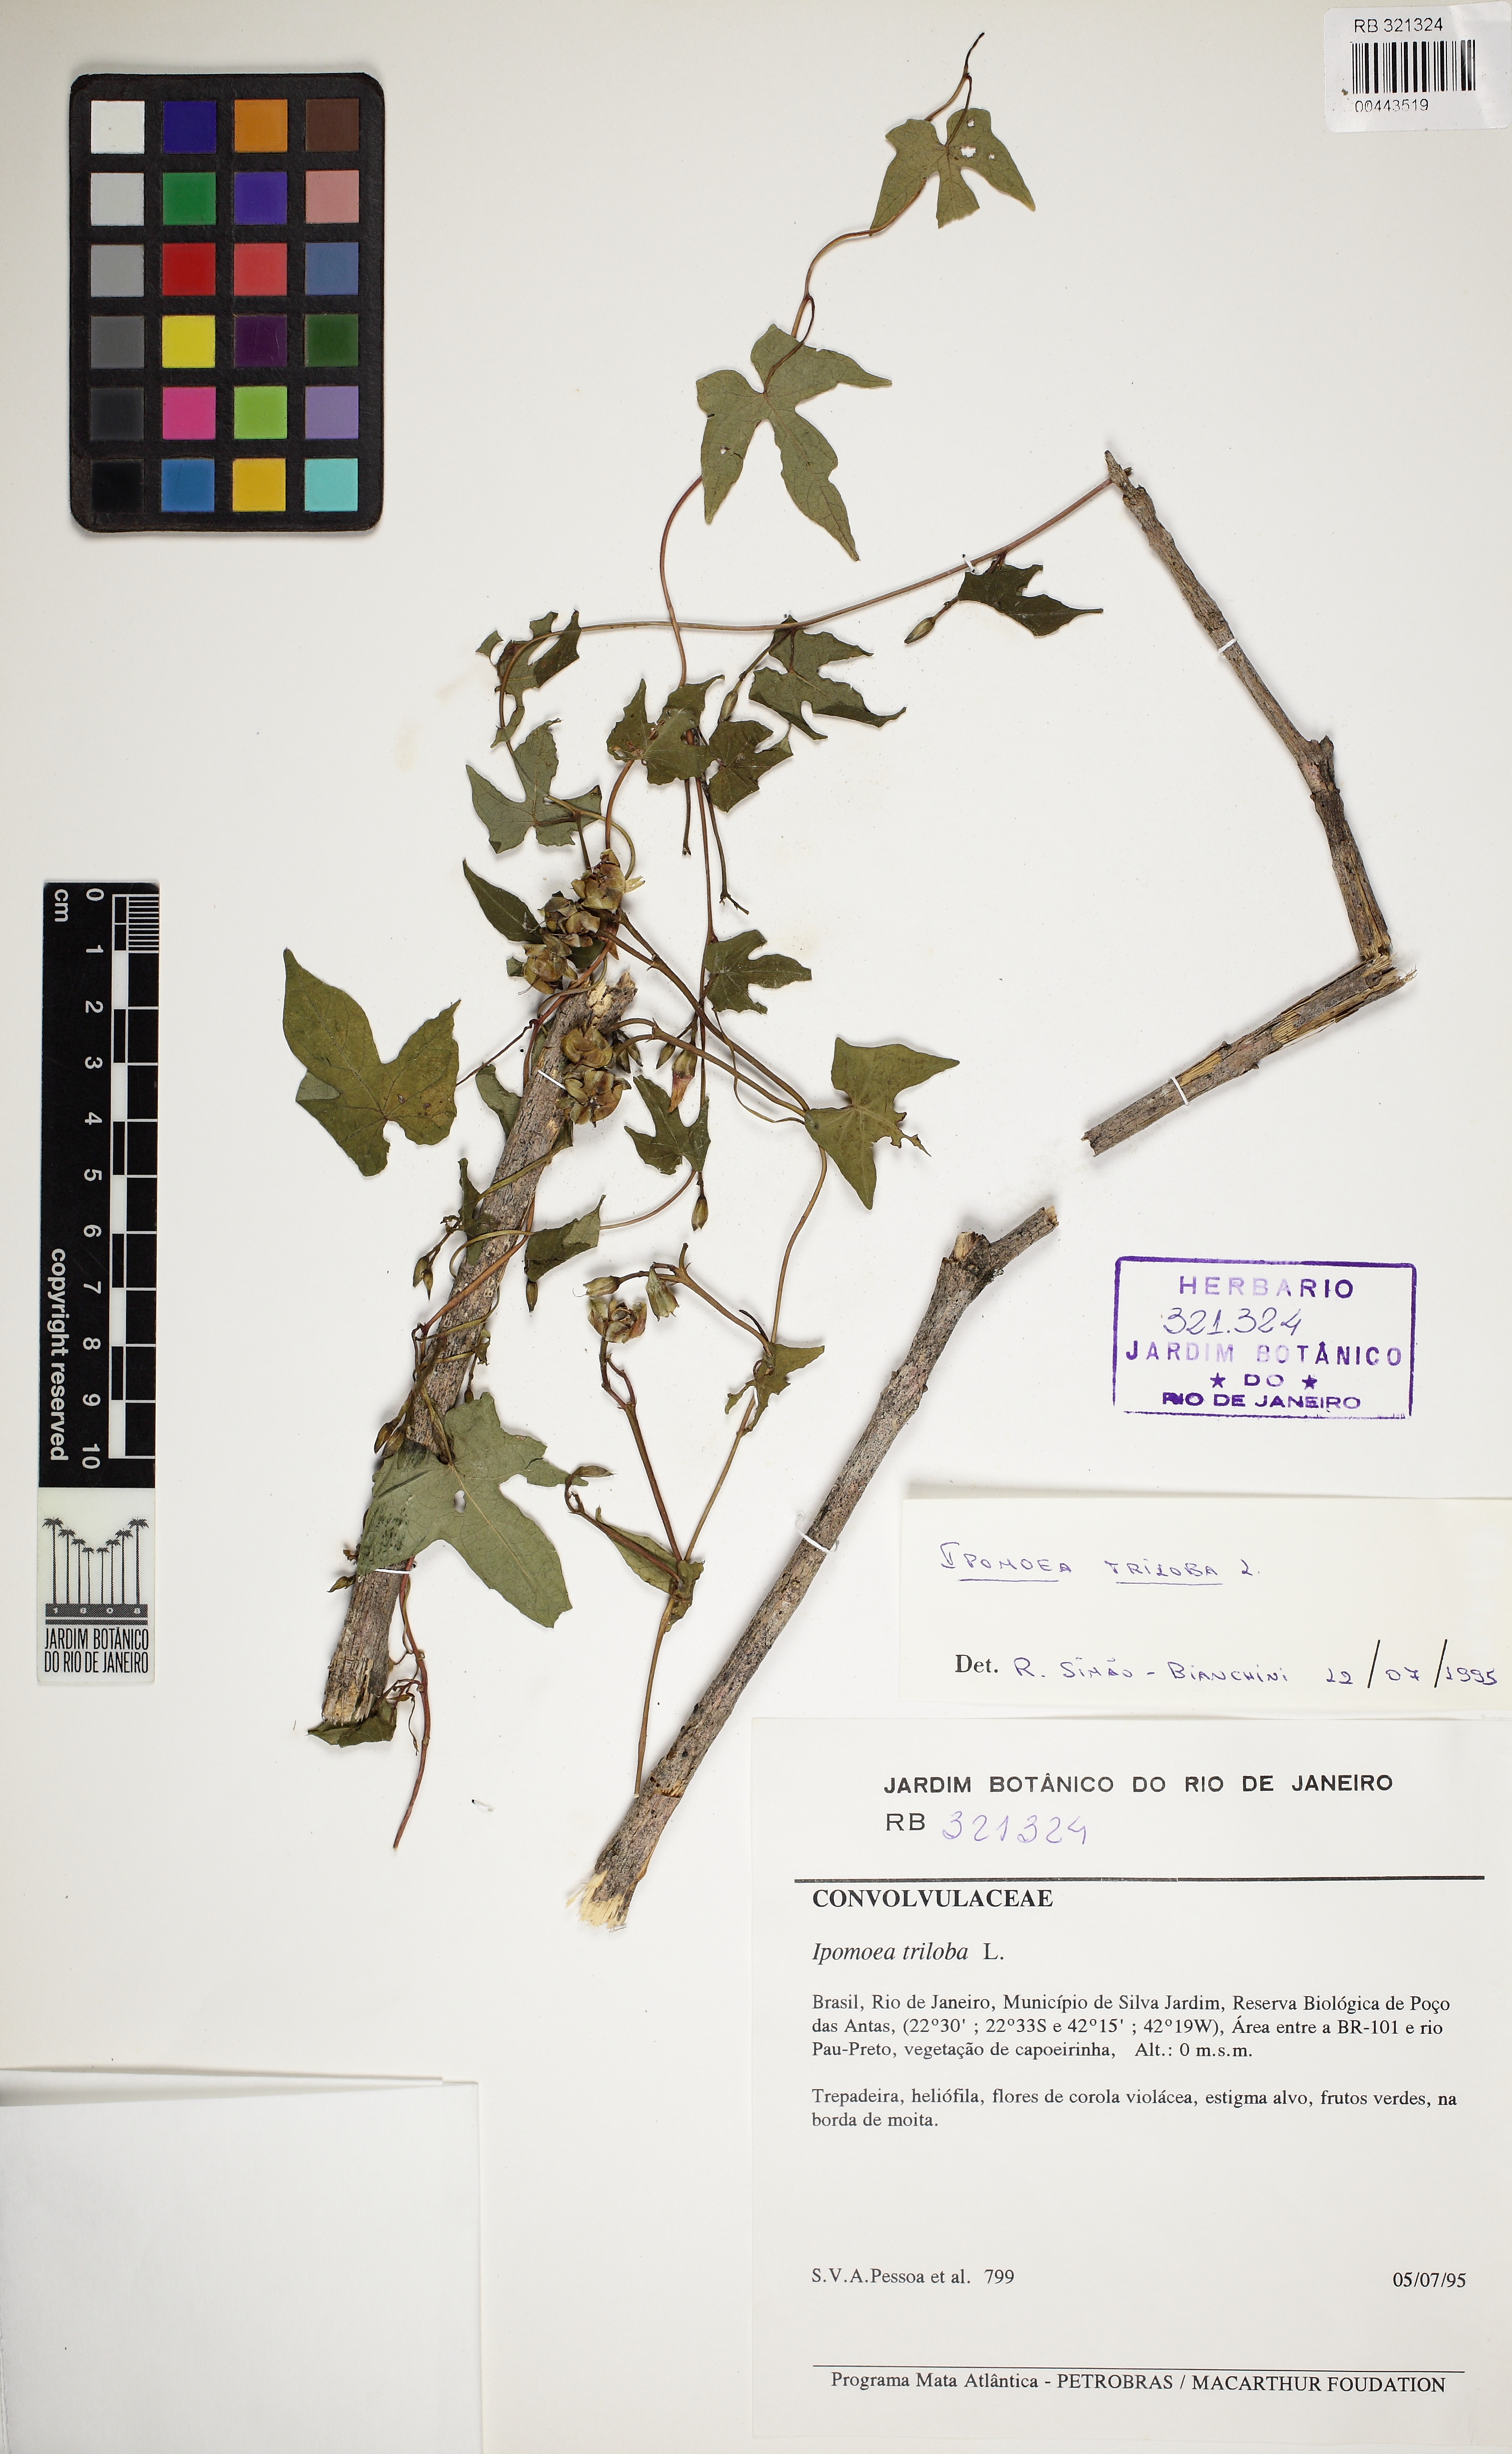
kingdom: Plantae
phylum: Tracheophyta
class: Magnoliopsida
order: Solanales
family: Convolvulaceae
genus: Ipomoea
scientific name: Ipomoea triloba
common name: Little-bell
